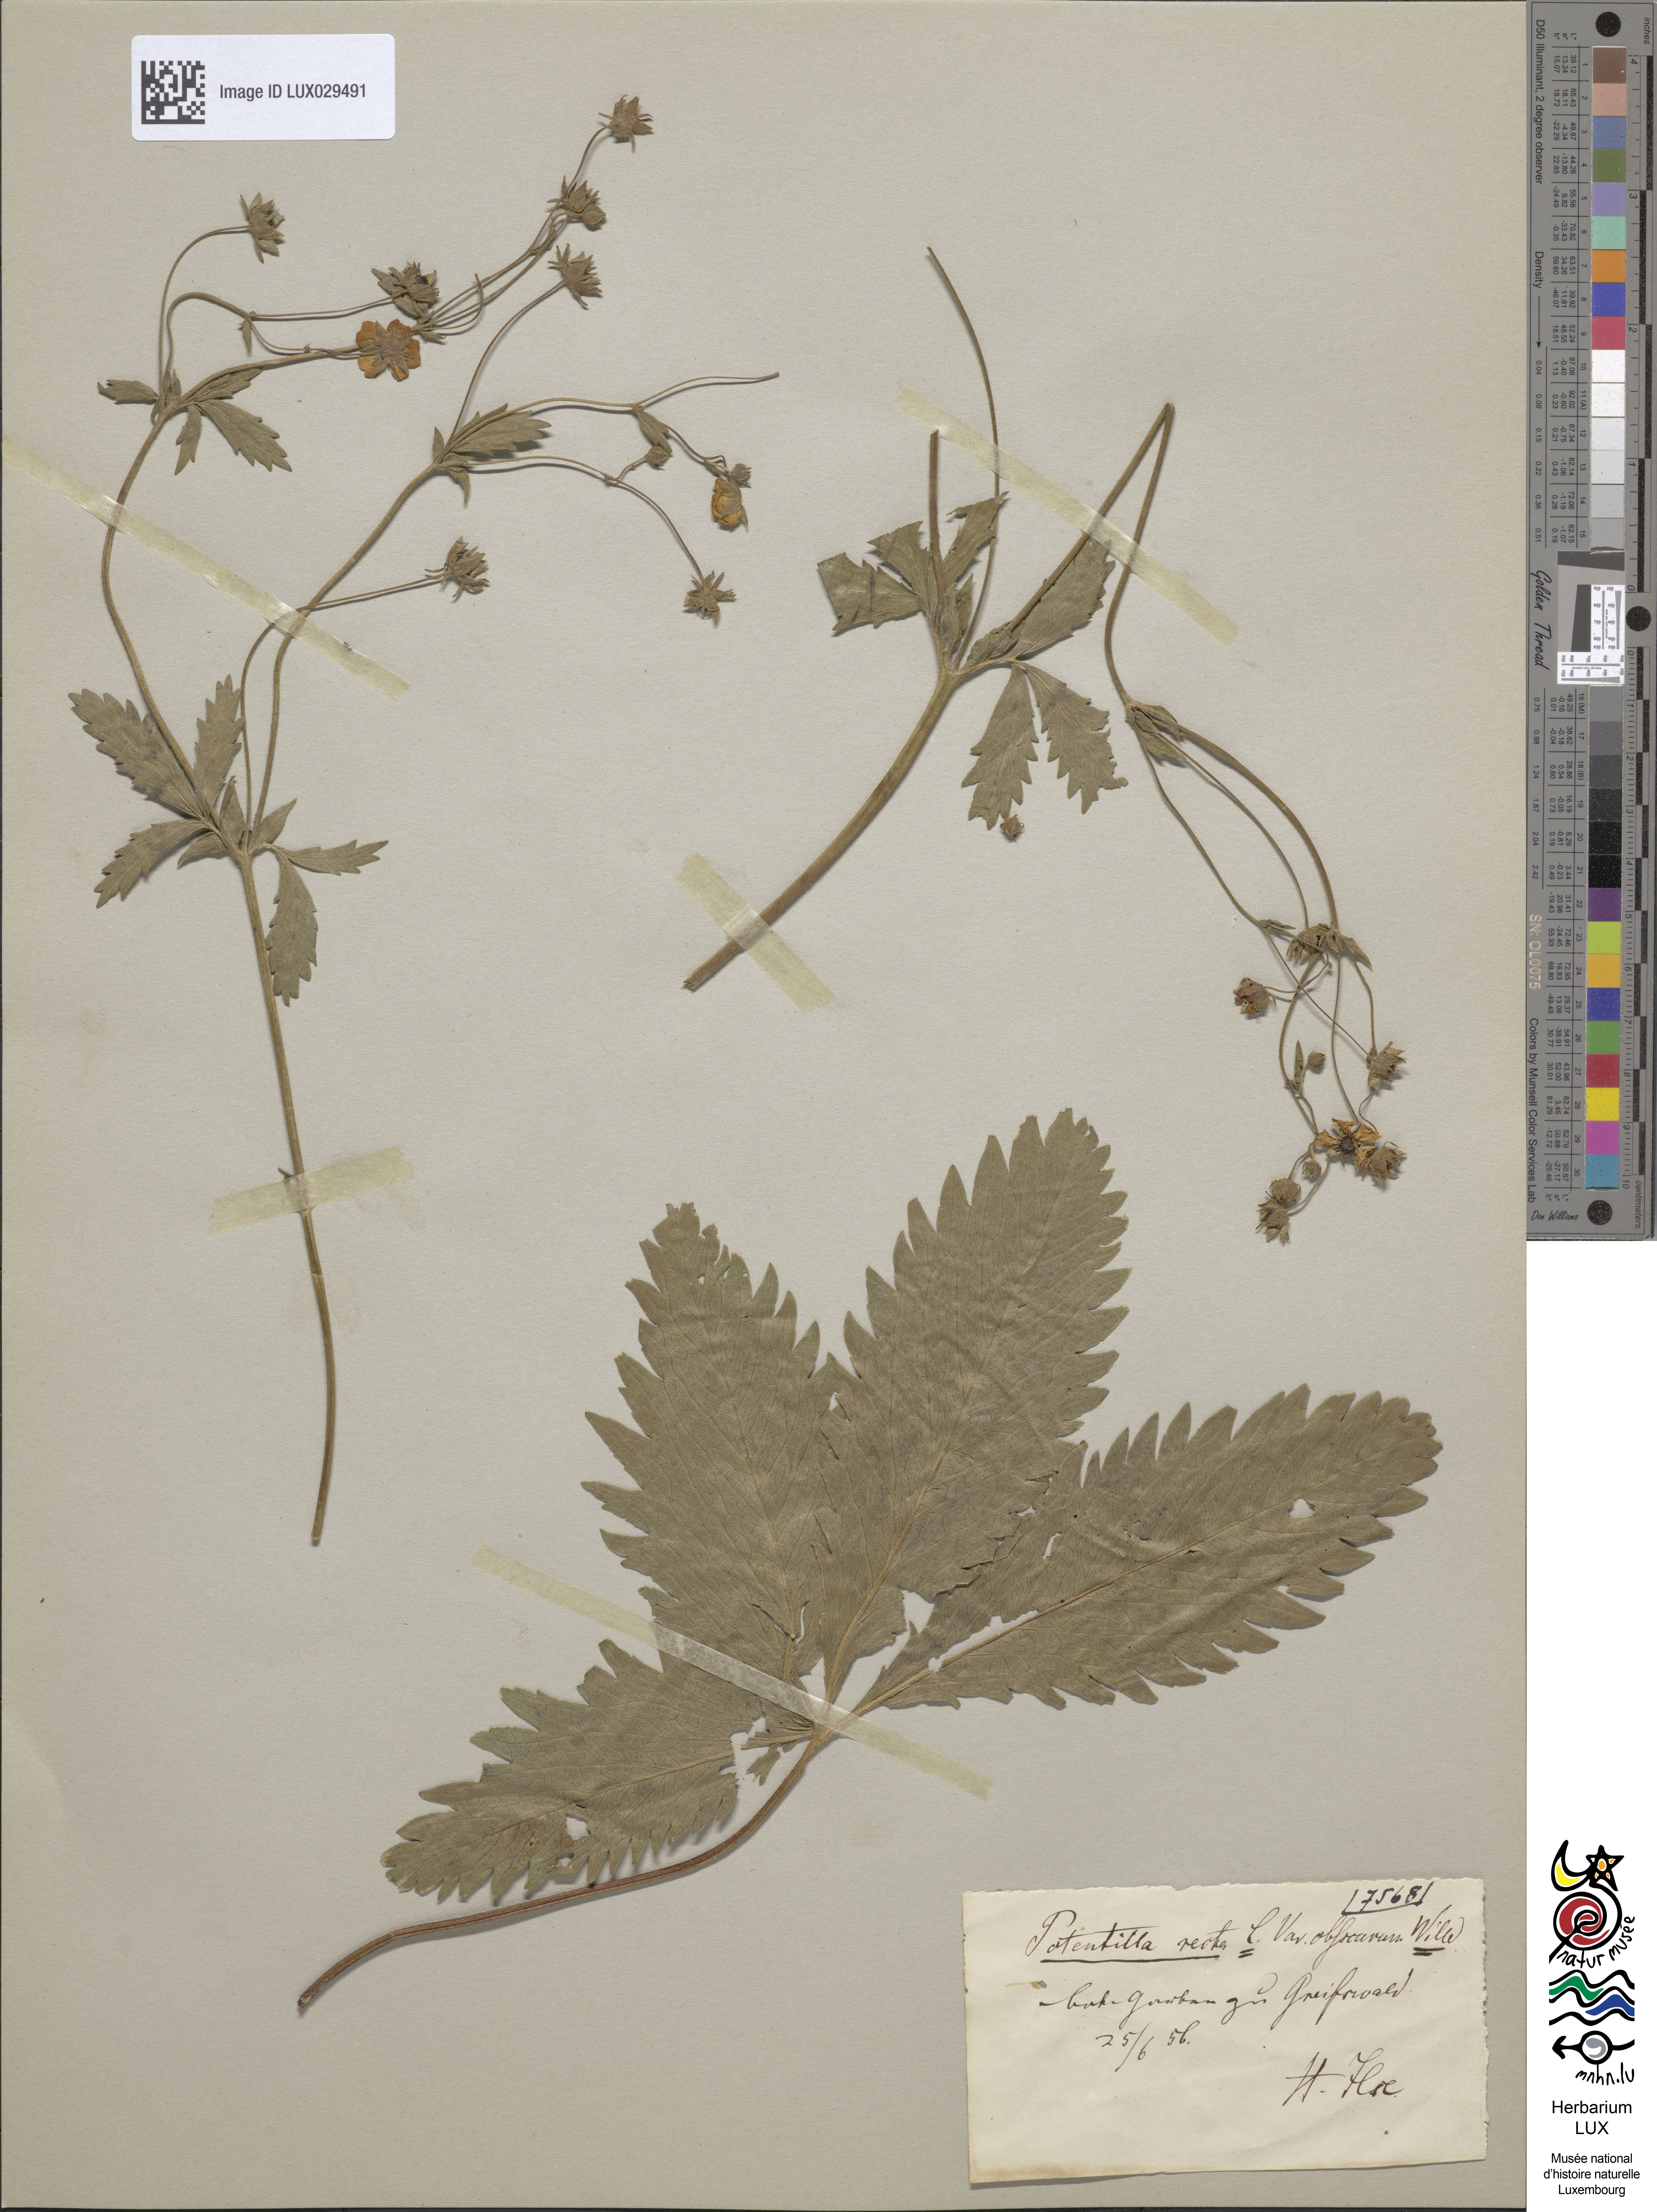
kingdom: Plantae
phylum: Tracheophyta
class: Magnoliopsida
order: Rosales
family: Rosaceae
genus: Potentilla
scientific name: Potentilla recta
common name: Sulphur cinquefoil
